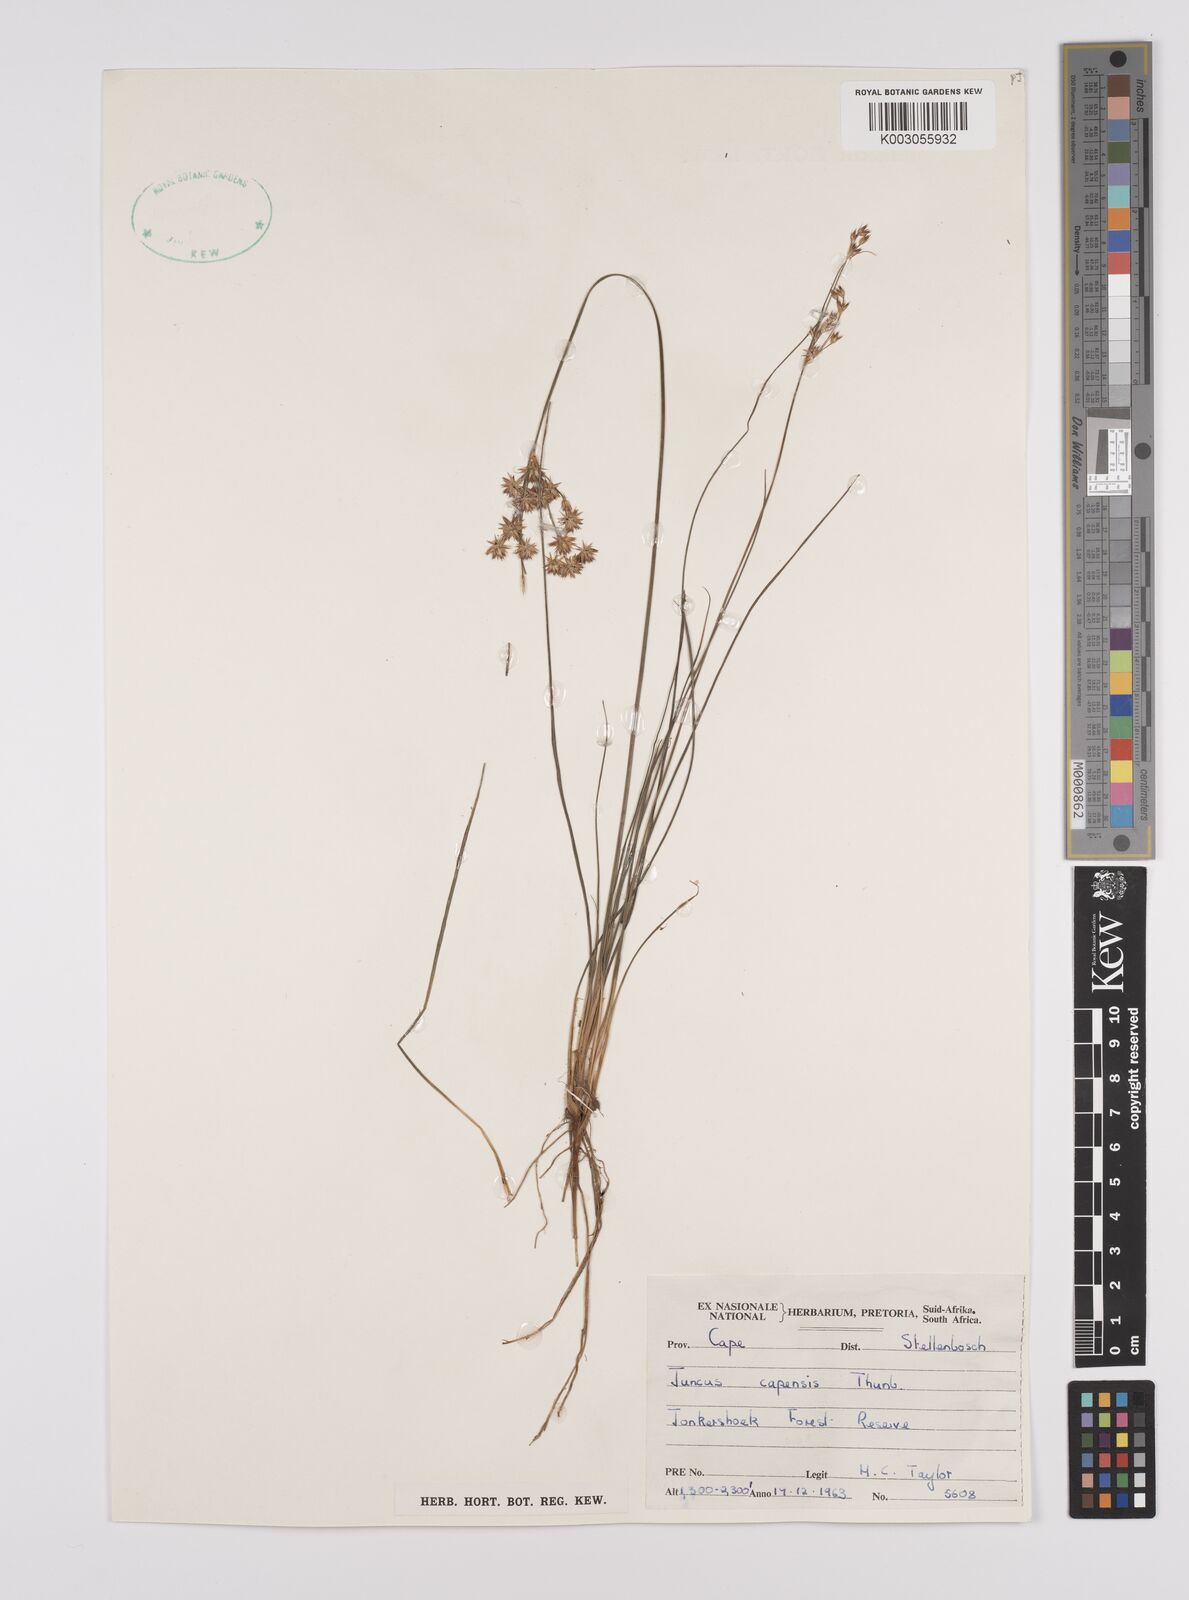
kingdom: Plantae
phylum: Tracheophyta
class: Liliopsida
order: Poales
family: Juncaceae
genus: Juncus
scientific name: Juncus capensis
